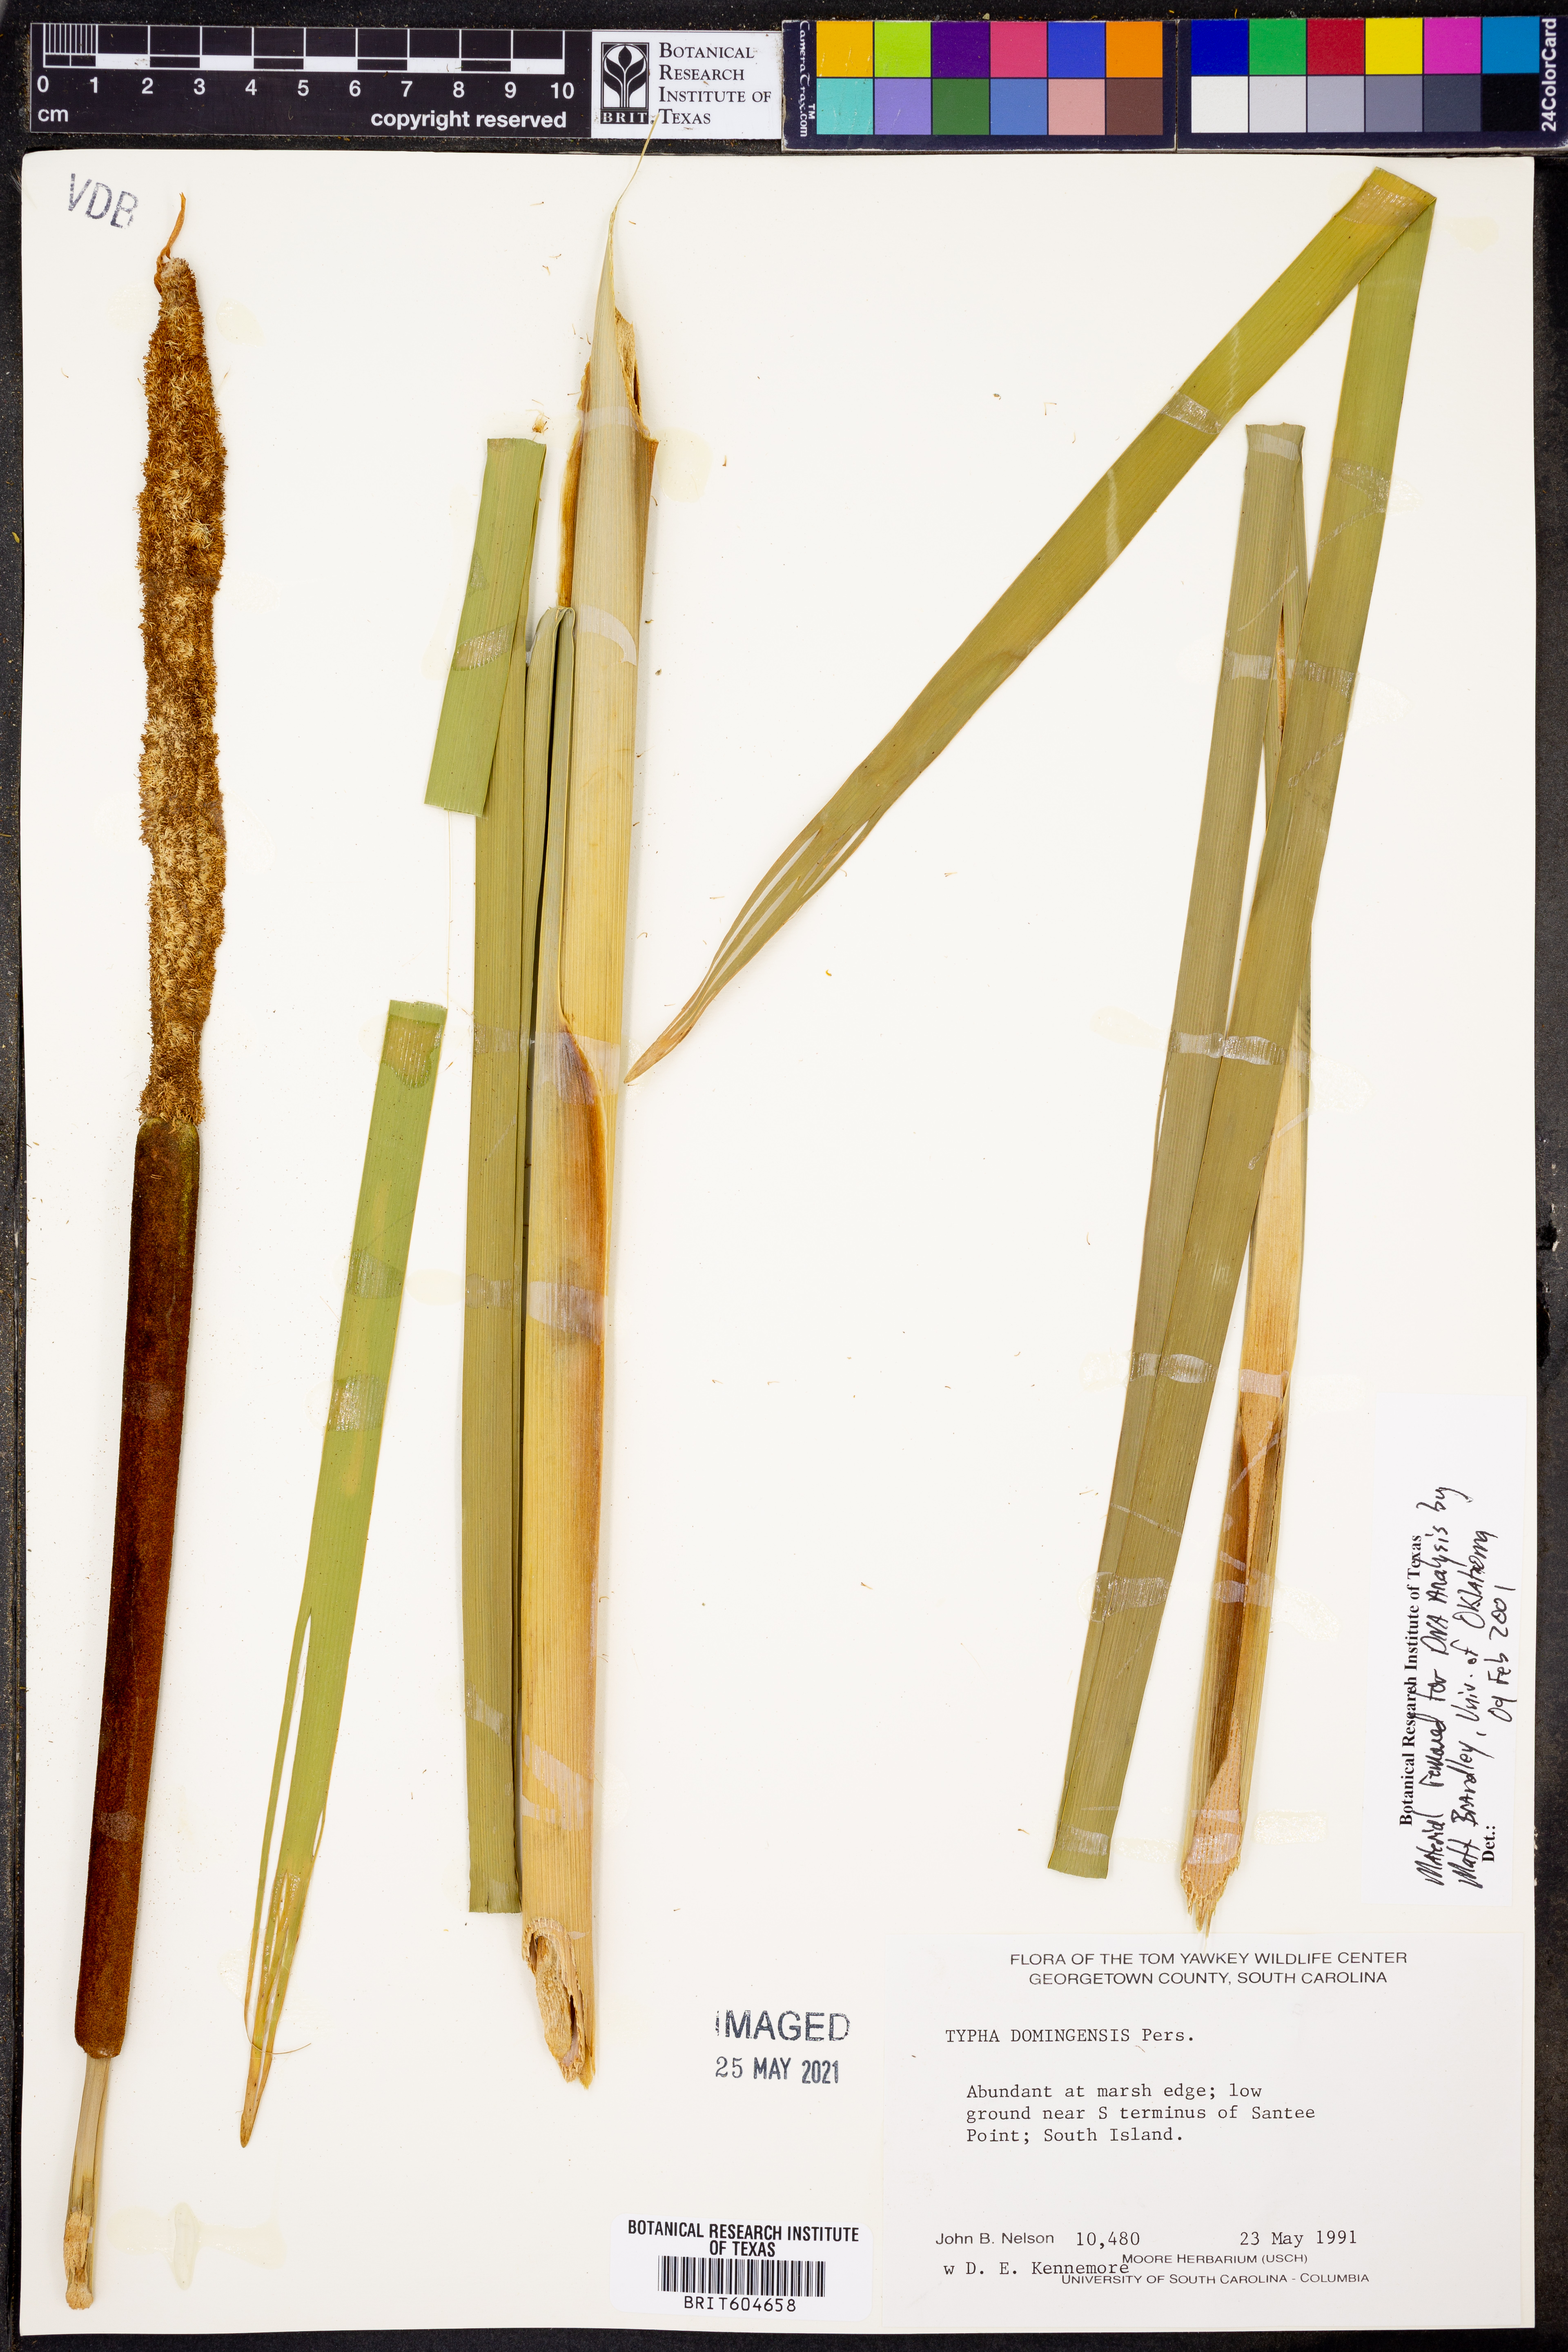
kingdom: Plantae
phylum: Tracheophyta
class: Liliopsida
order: Poales
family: Typhaceae
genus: Typha
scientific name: Typha domingensis
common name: Southern cattail
